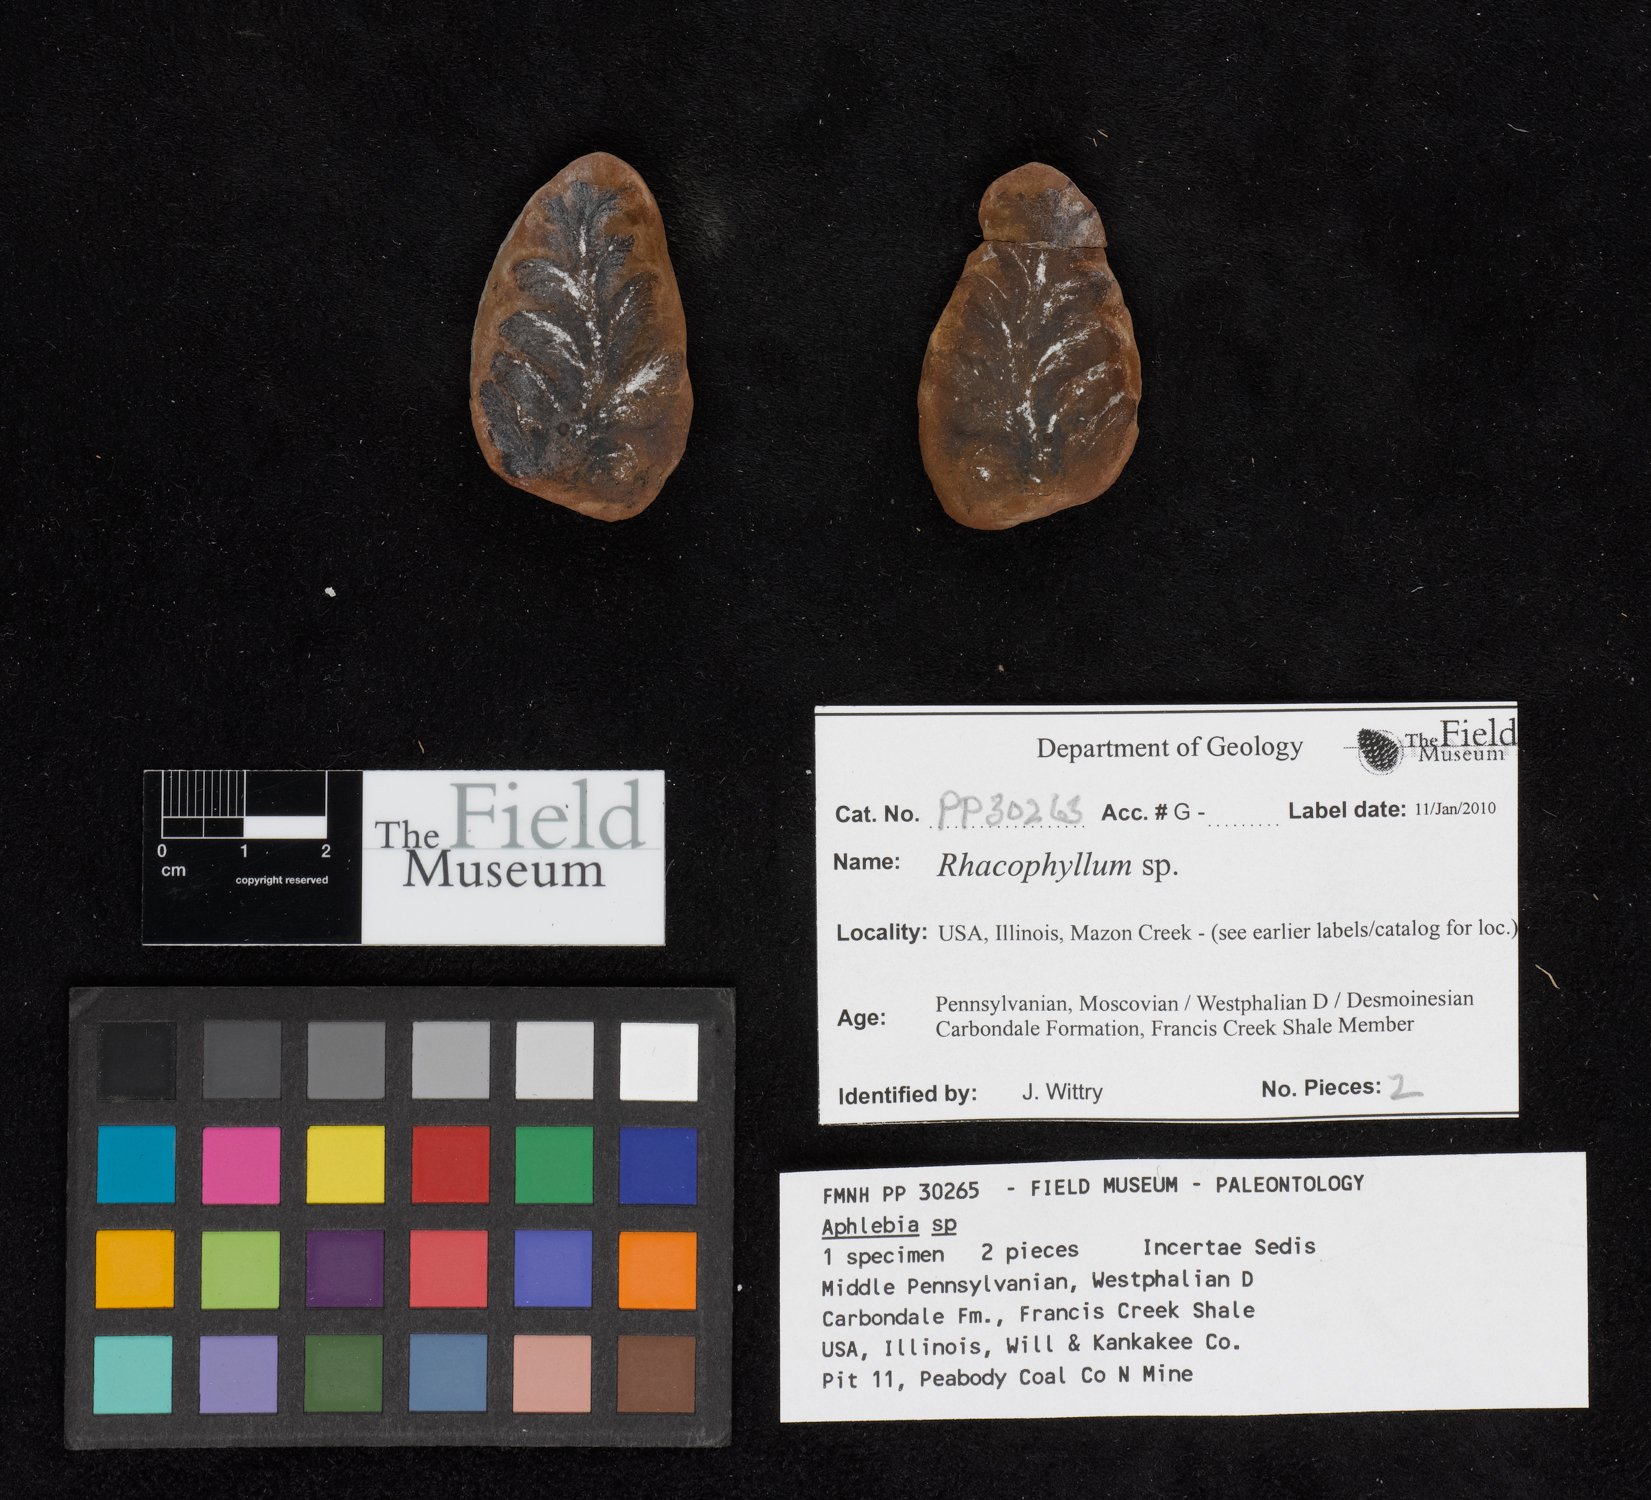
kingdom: Plantae
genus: Rhacophyllum
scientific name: Rhacophyllum
